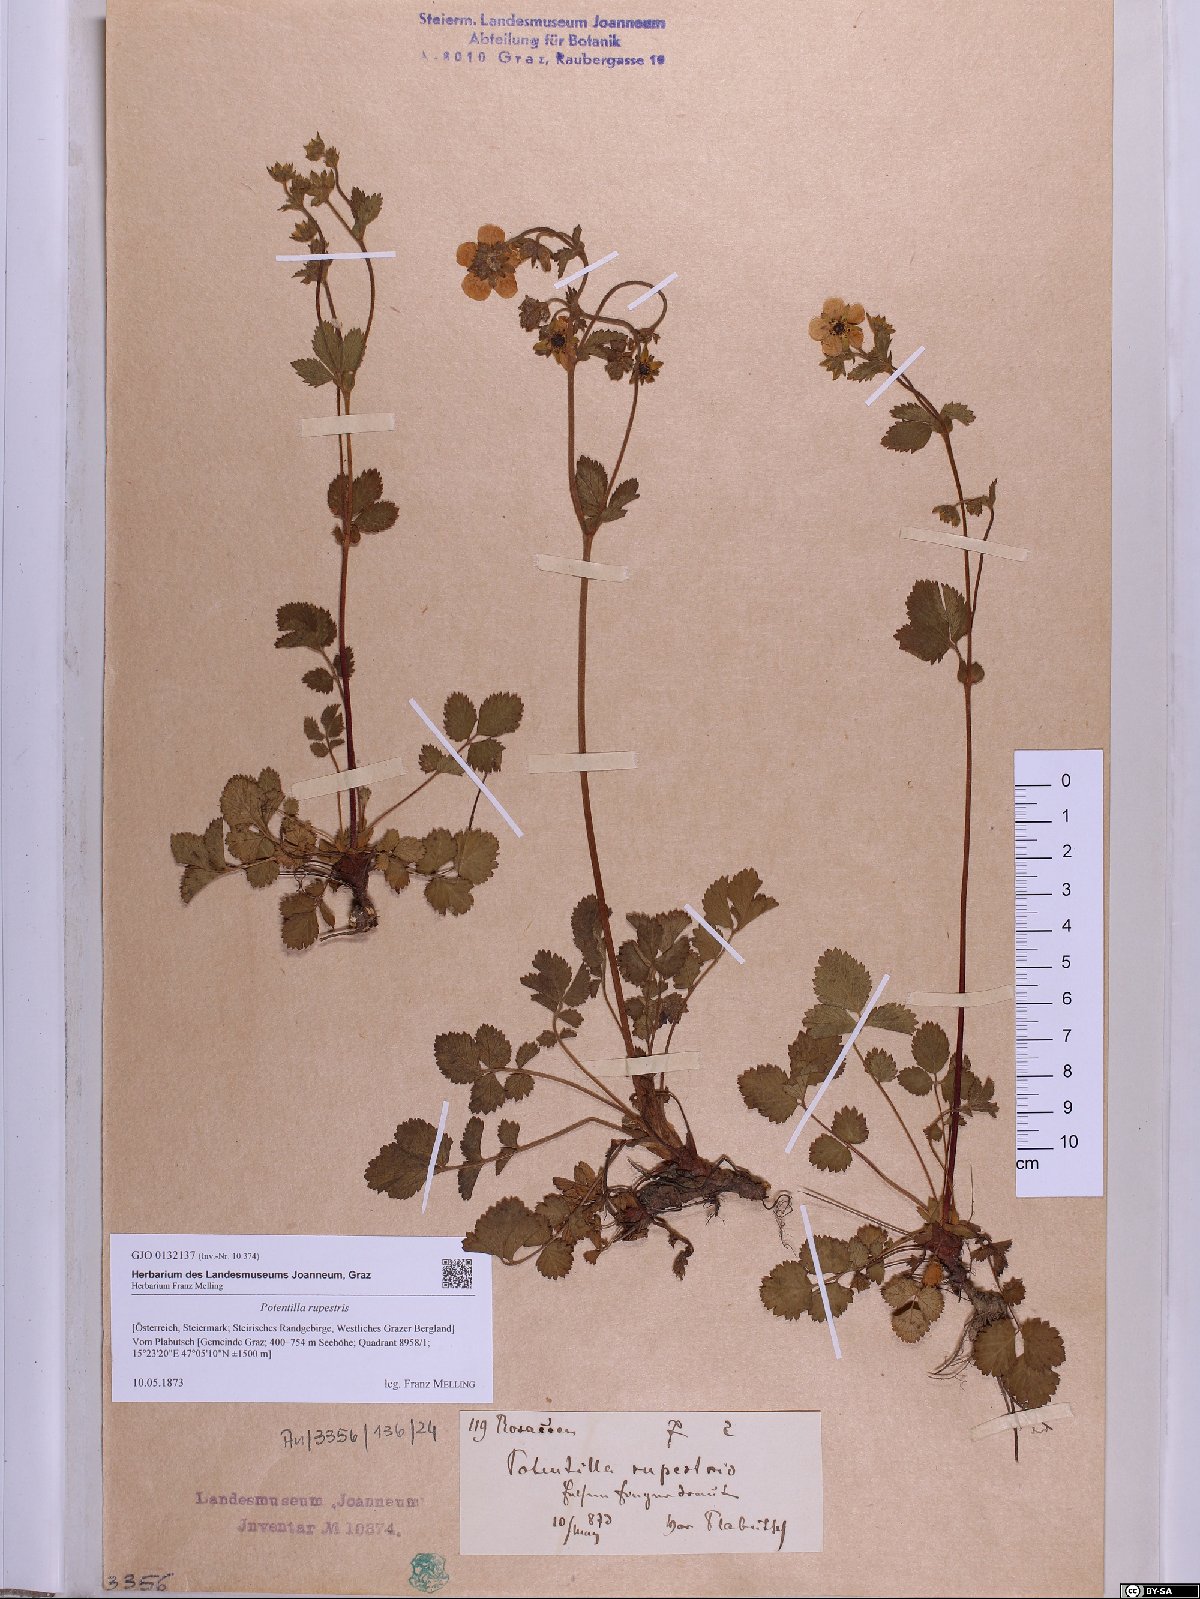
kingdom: Plantae
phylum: Tracheophyta
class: Magnoliopsida
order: Rosales
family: Rosaceae
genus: Drymocallis
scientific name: Drymocallis rupestris
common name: Rock cinquefoil
